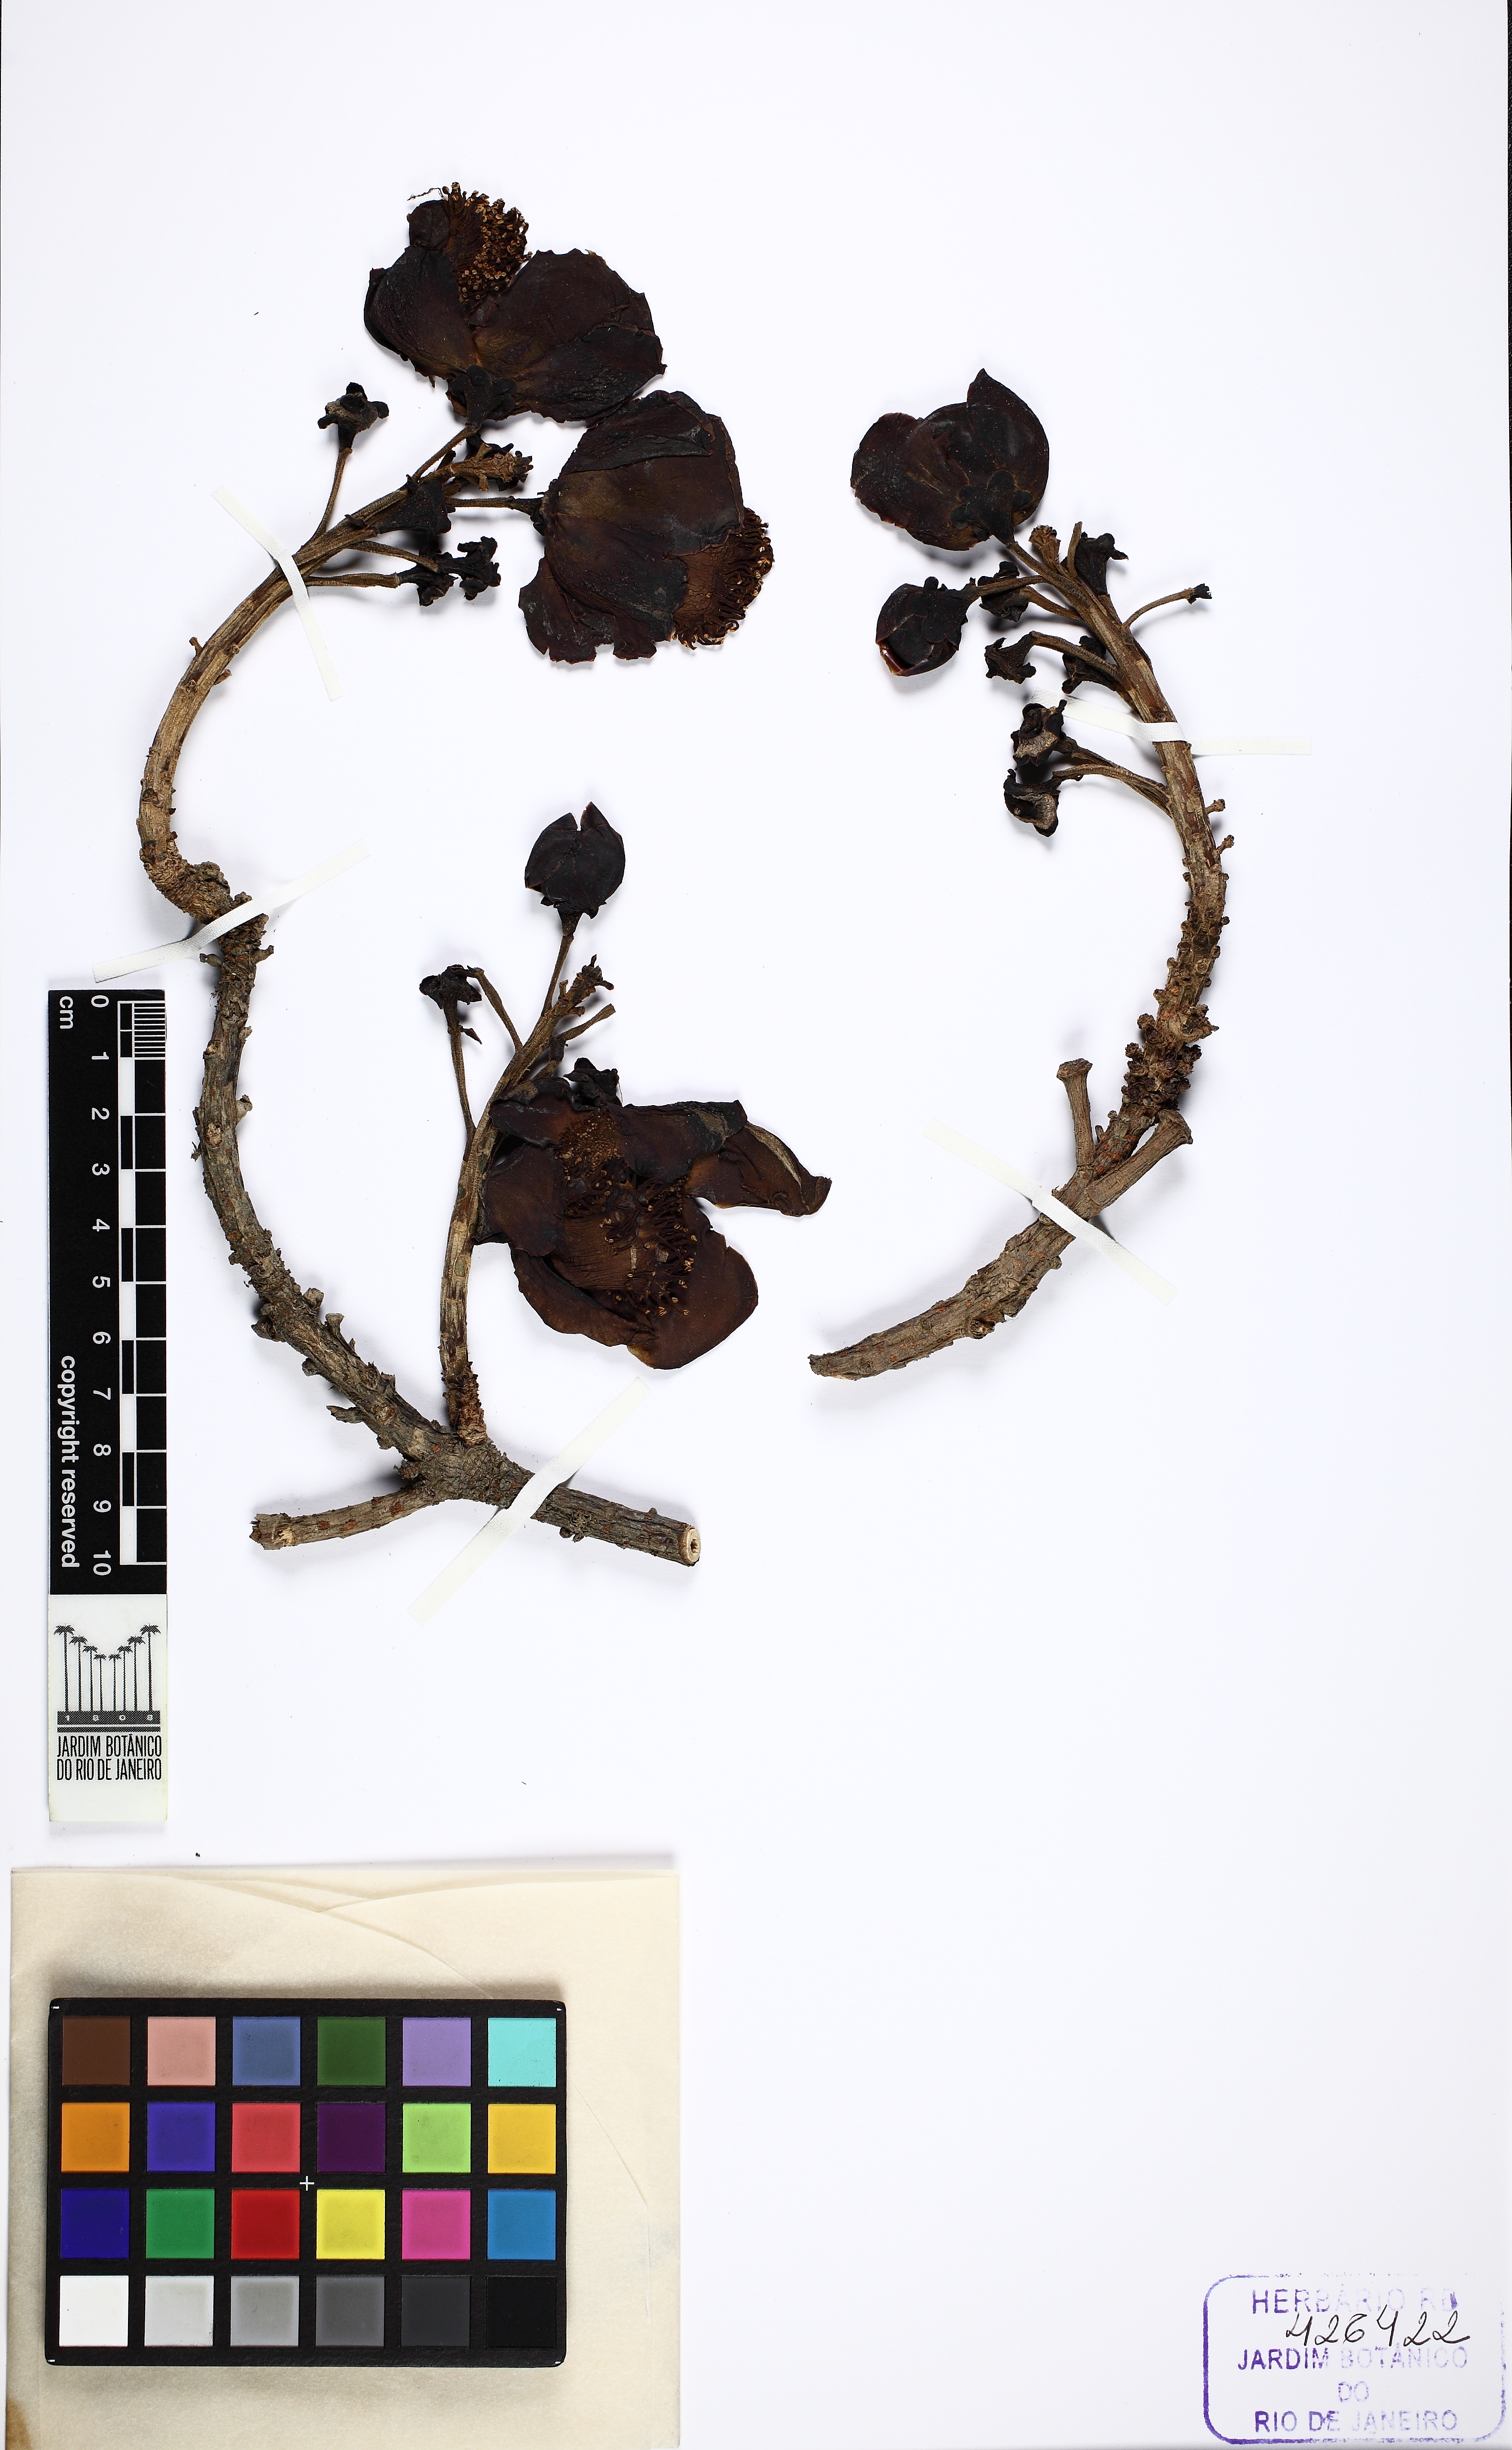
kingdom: Plantae
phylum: Tracheophyta
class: Magnoliopsida
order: Ericales
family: Lecythidaceae
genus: Couroupita
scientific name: Couroupita guianensis
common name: Cannonball tree
